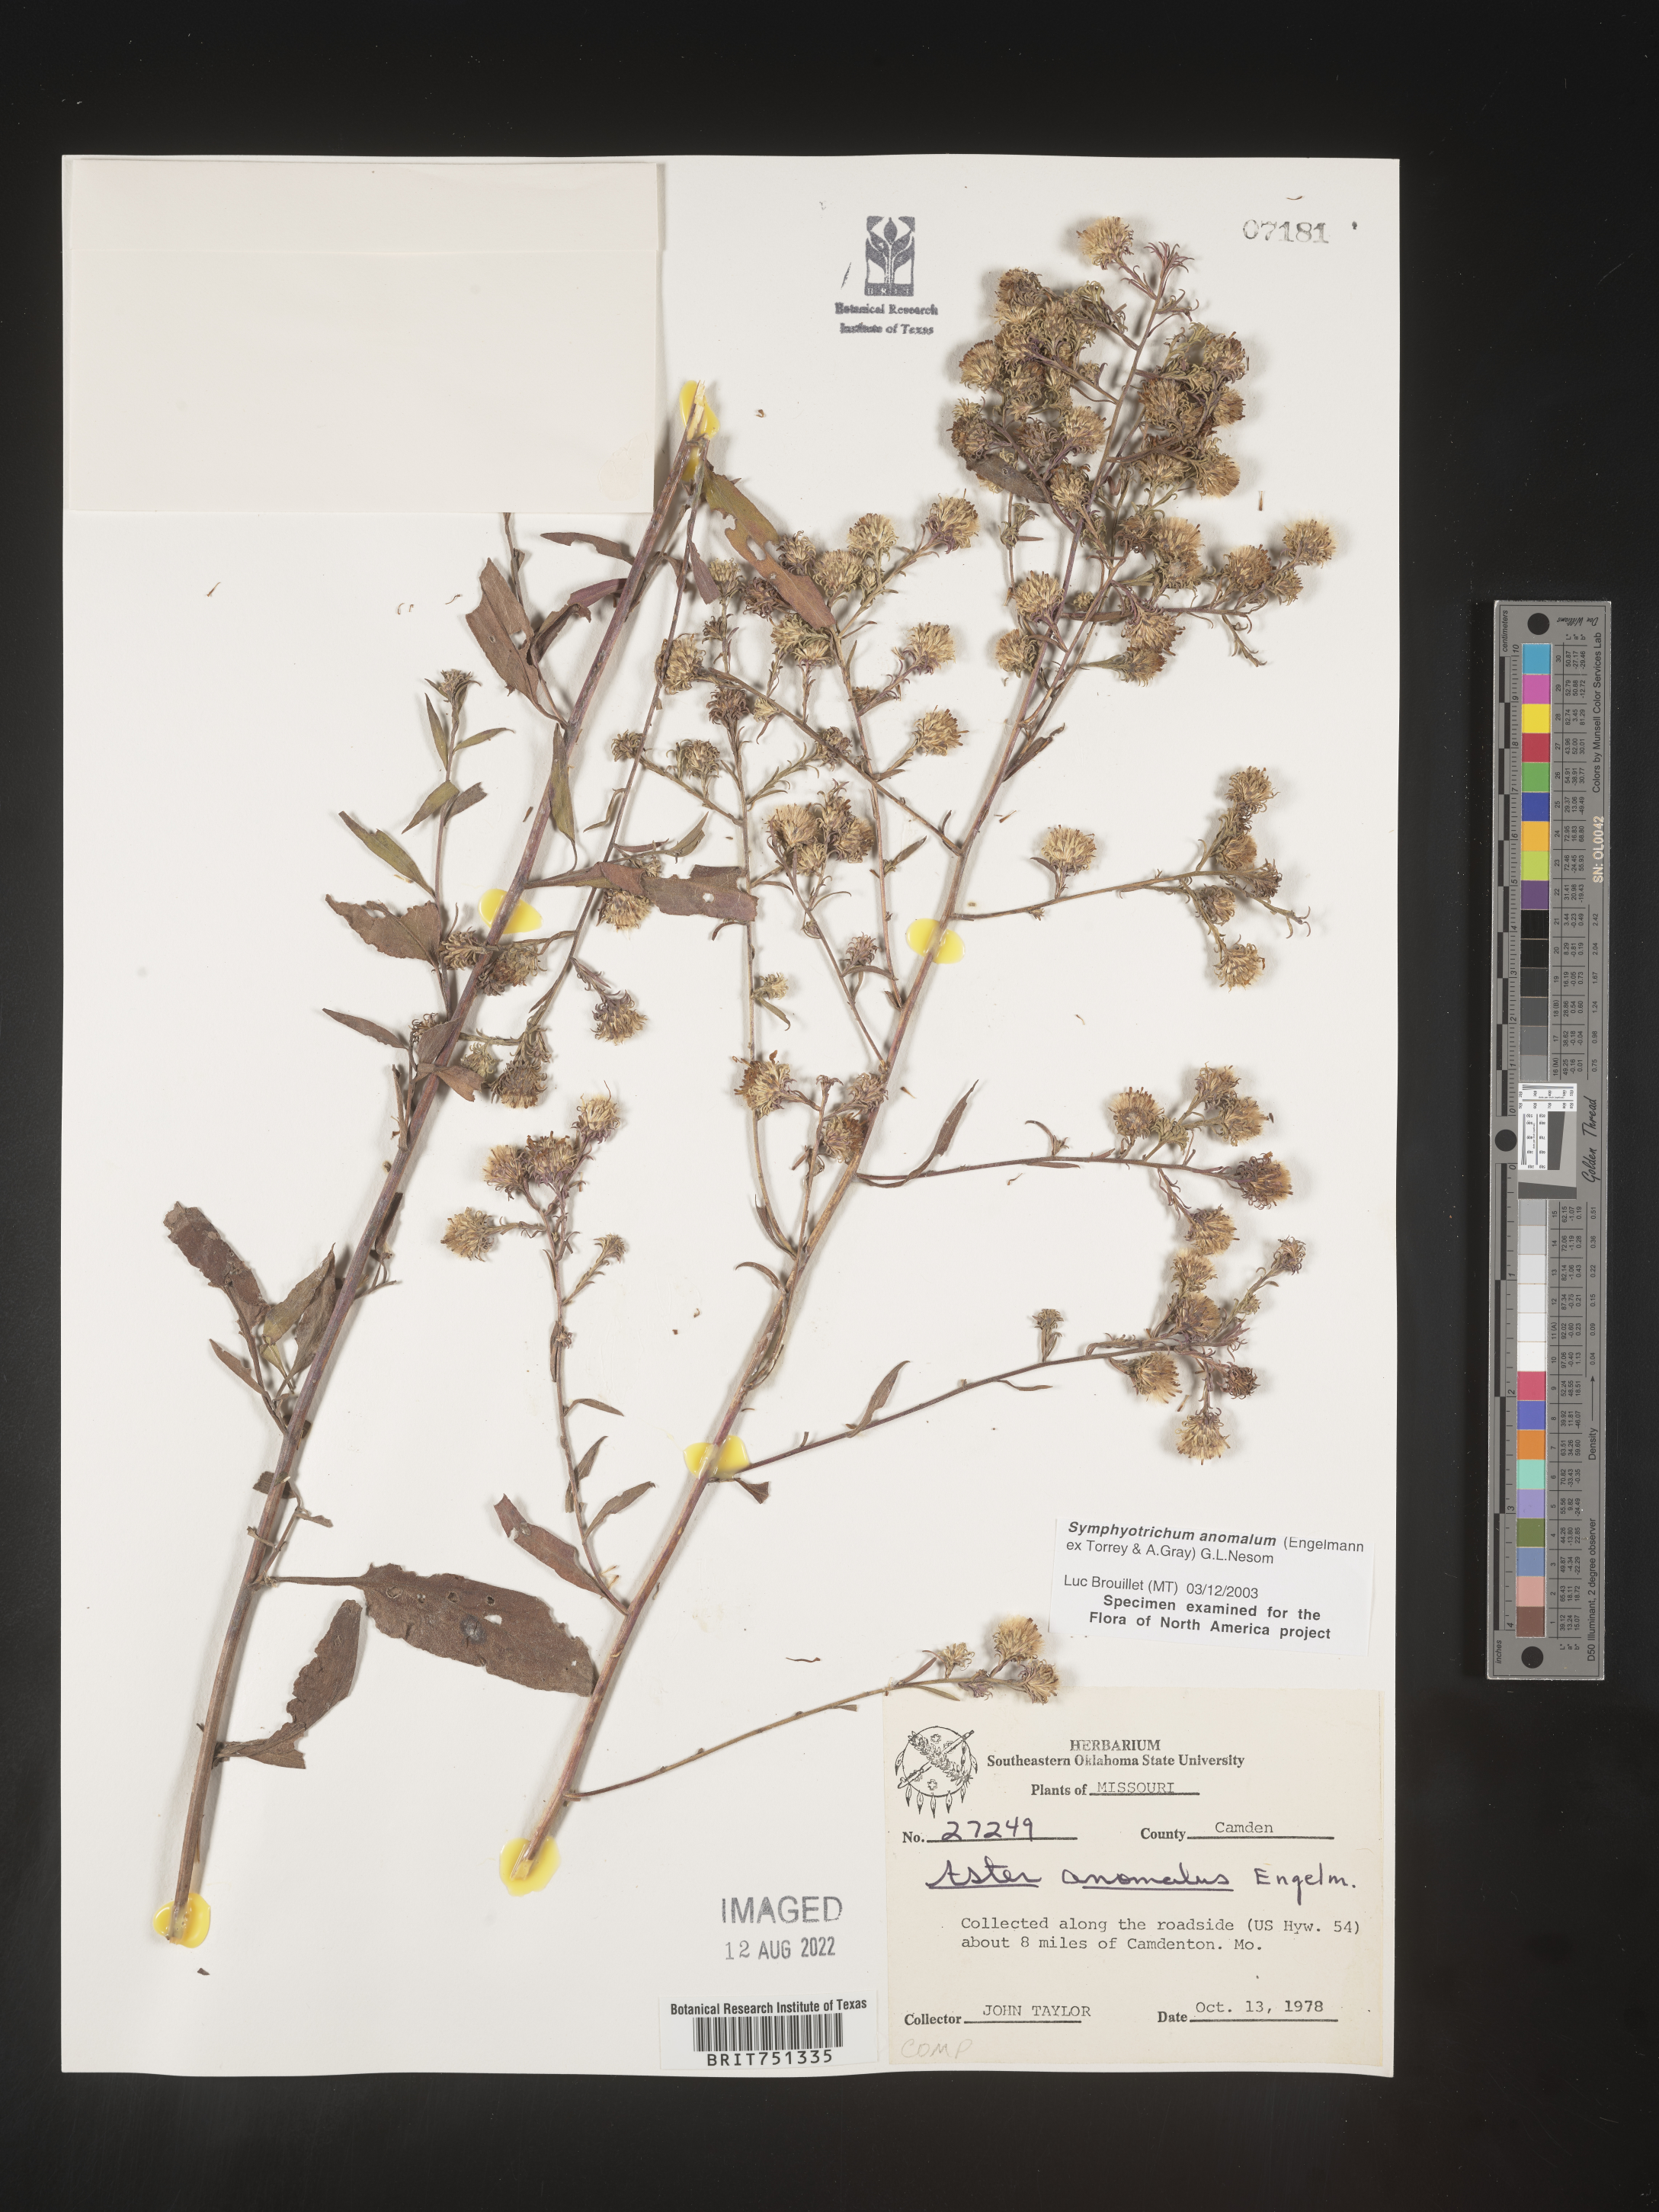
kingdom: Plantae
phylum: Tracheophyta
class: Magnoliopsida
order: Asterales
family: Asteraceae
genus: Symphyotrichum
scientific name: Symphyotrichum anomalum
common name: Many-ray aster
